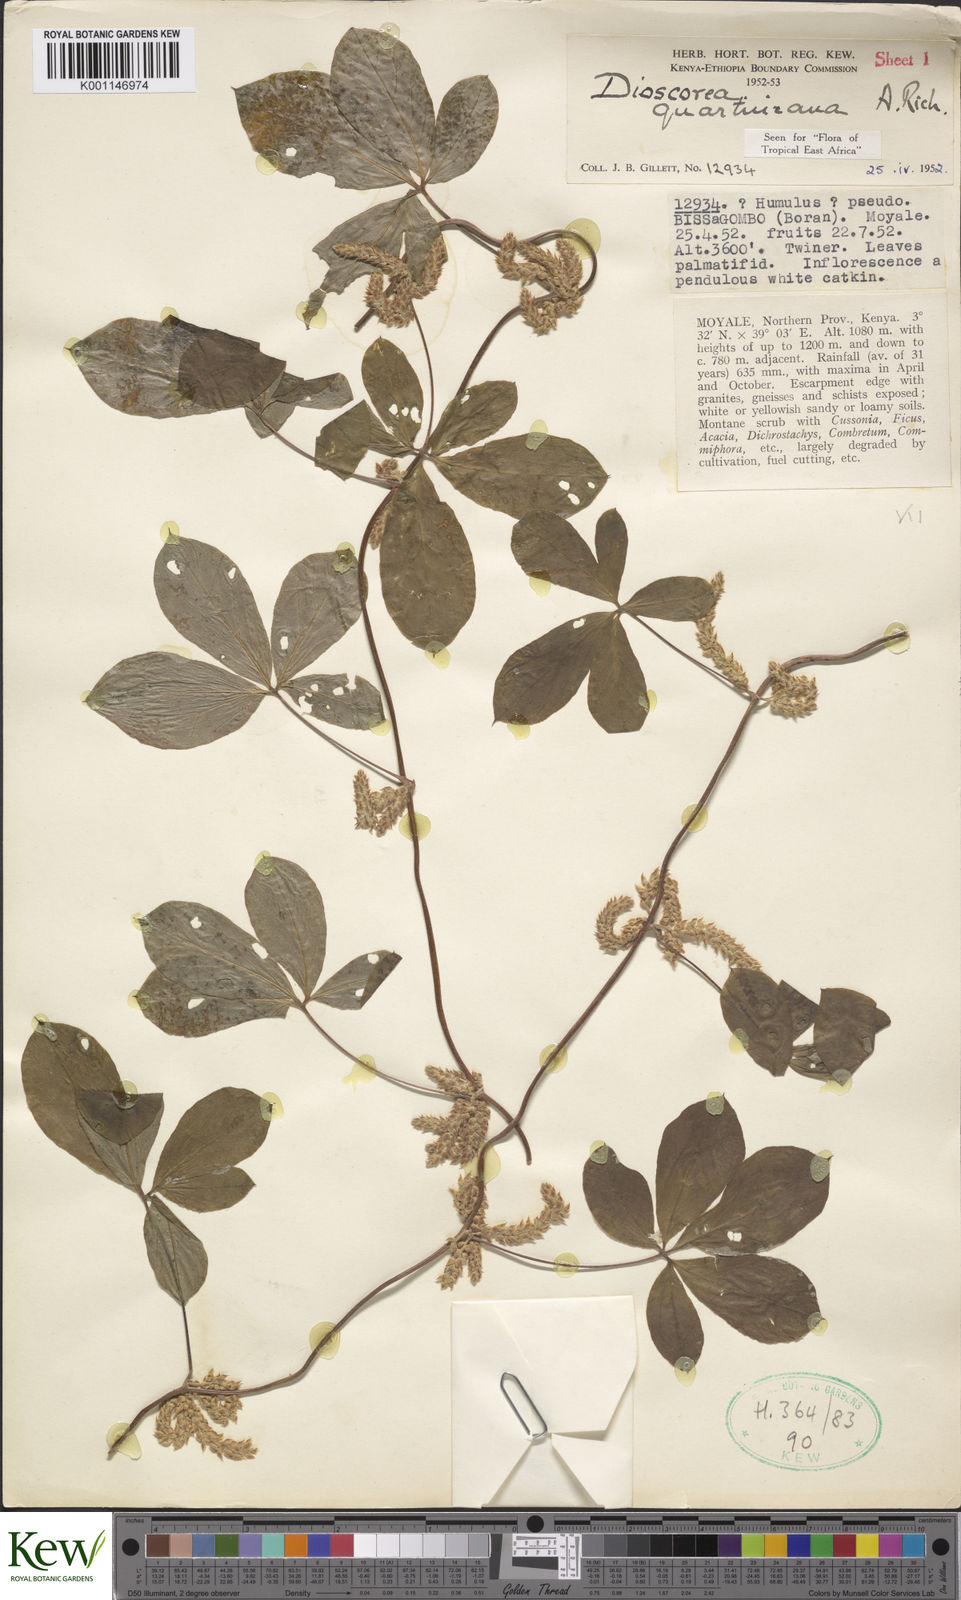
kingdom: Plantae
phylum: Tracheophyta
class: Liliopsida
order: Dioscoreales
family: Dioscoreaceae
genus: Dioscorea
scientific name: Dioscorea quartiniana
